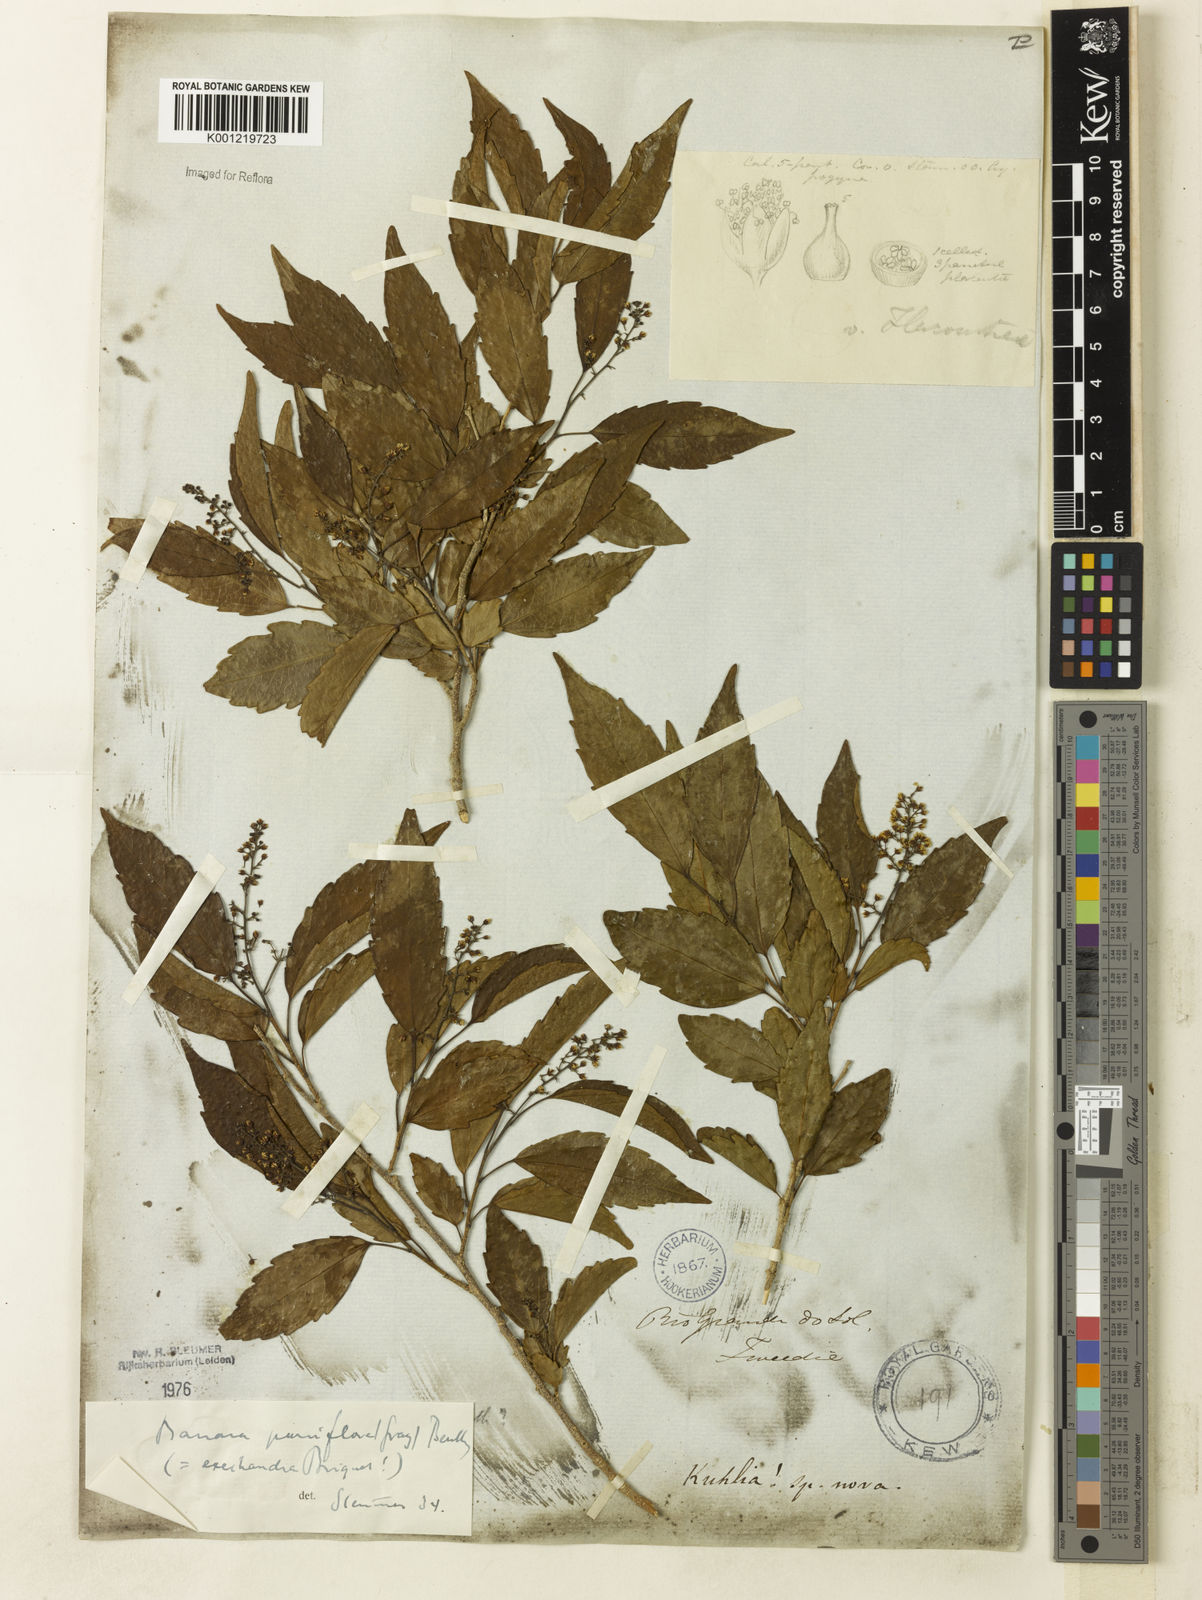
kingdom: Plantae
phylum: Tracheophyta
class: Magnoliopsida
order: Malpighiales
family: Salicaceae
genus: Banara
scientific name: Banara parviflora
